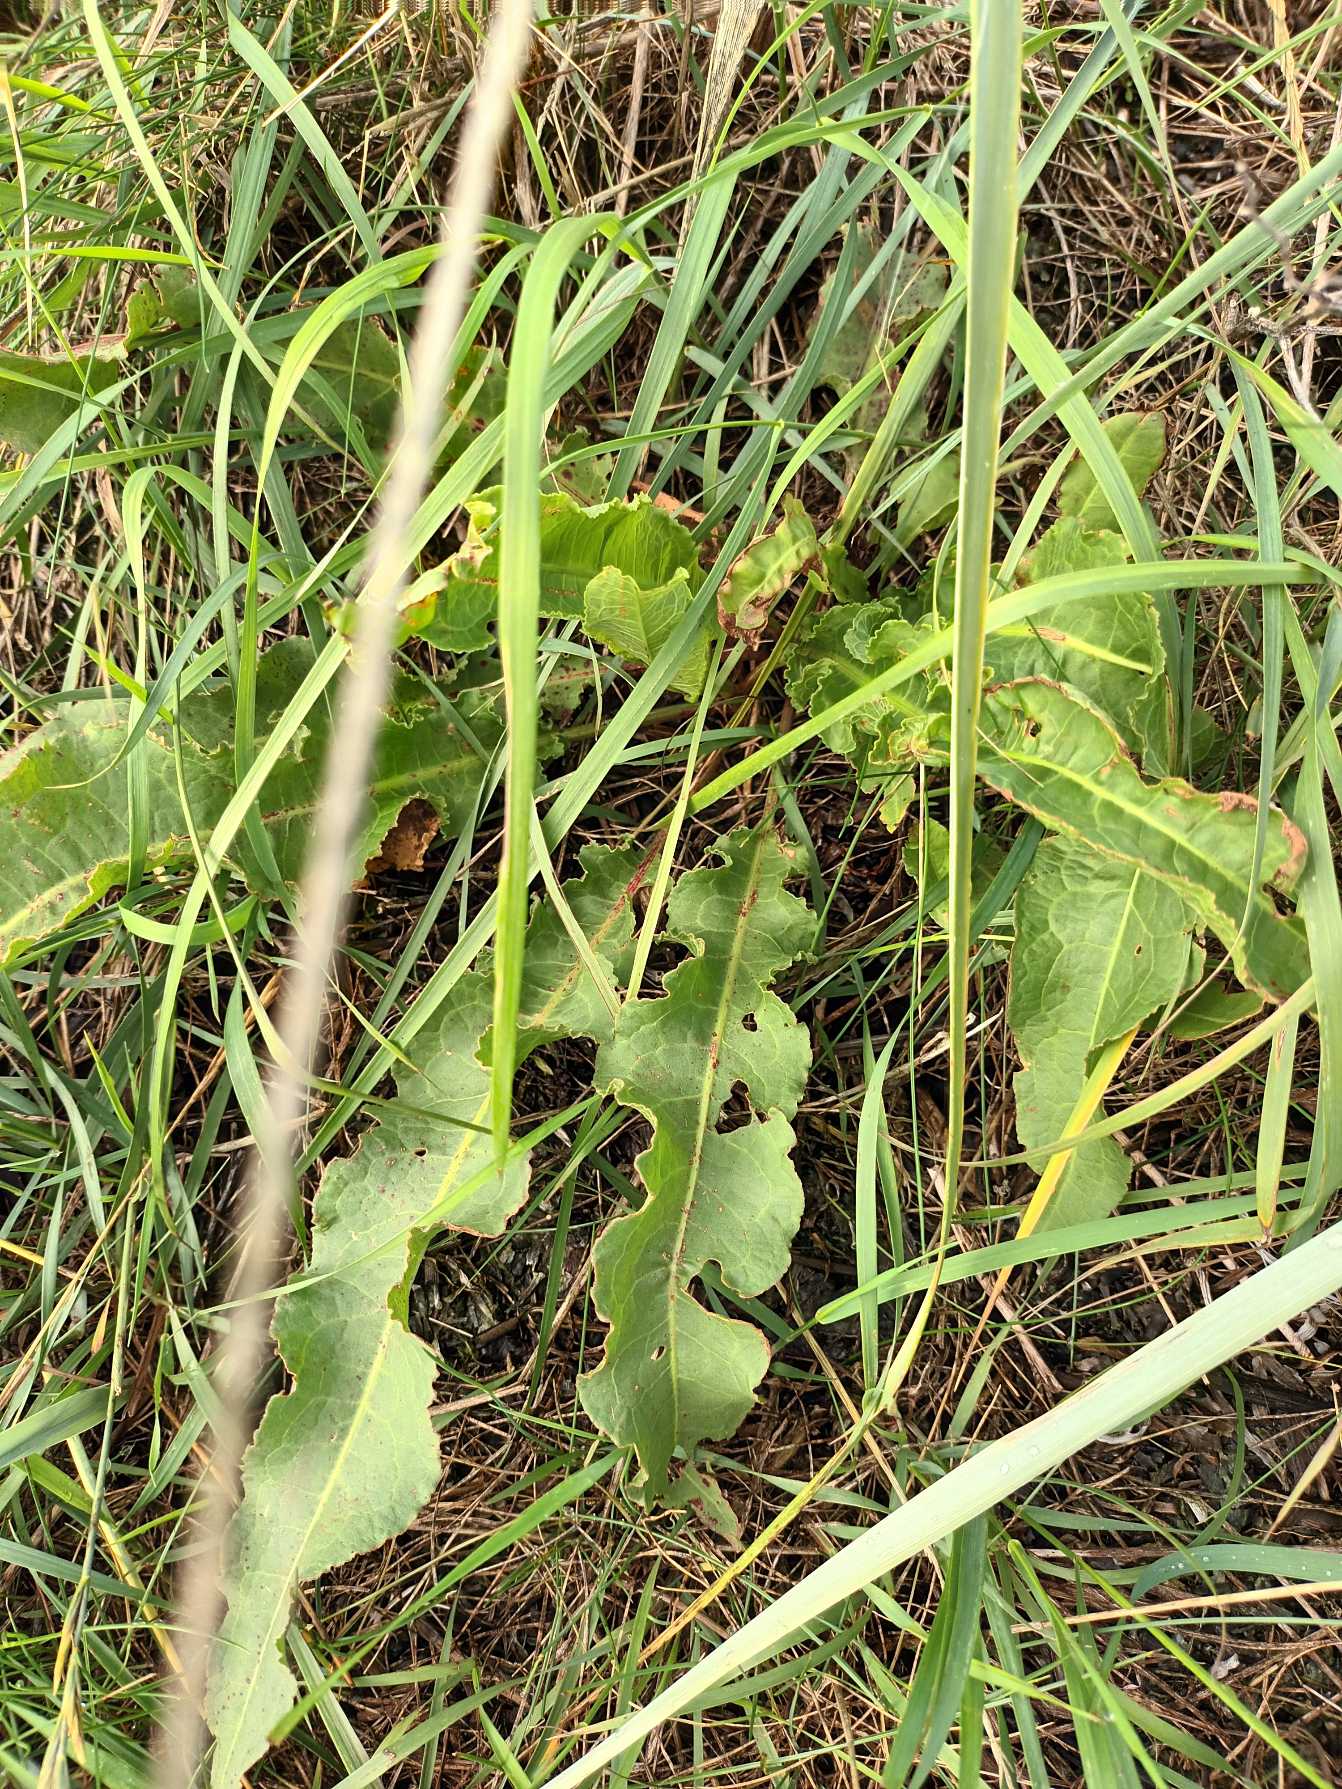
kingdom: Plantae
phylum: Tracheophyta
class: Magnoliopsida
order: Caryophyllales
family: Polygonaceae
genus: Rumex
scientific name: Rumex crispus
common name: Kruset skræppe
